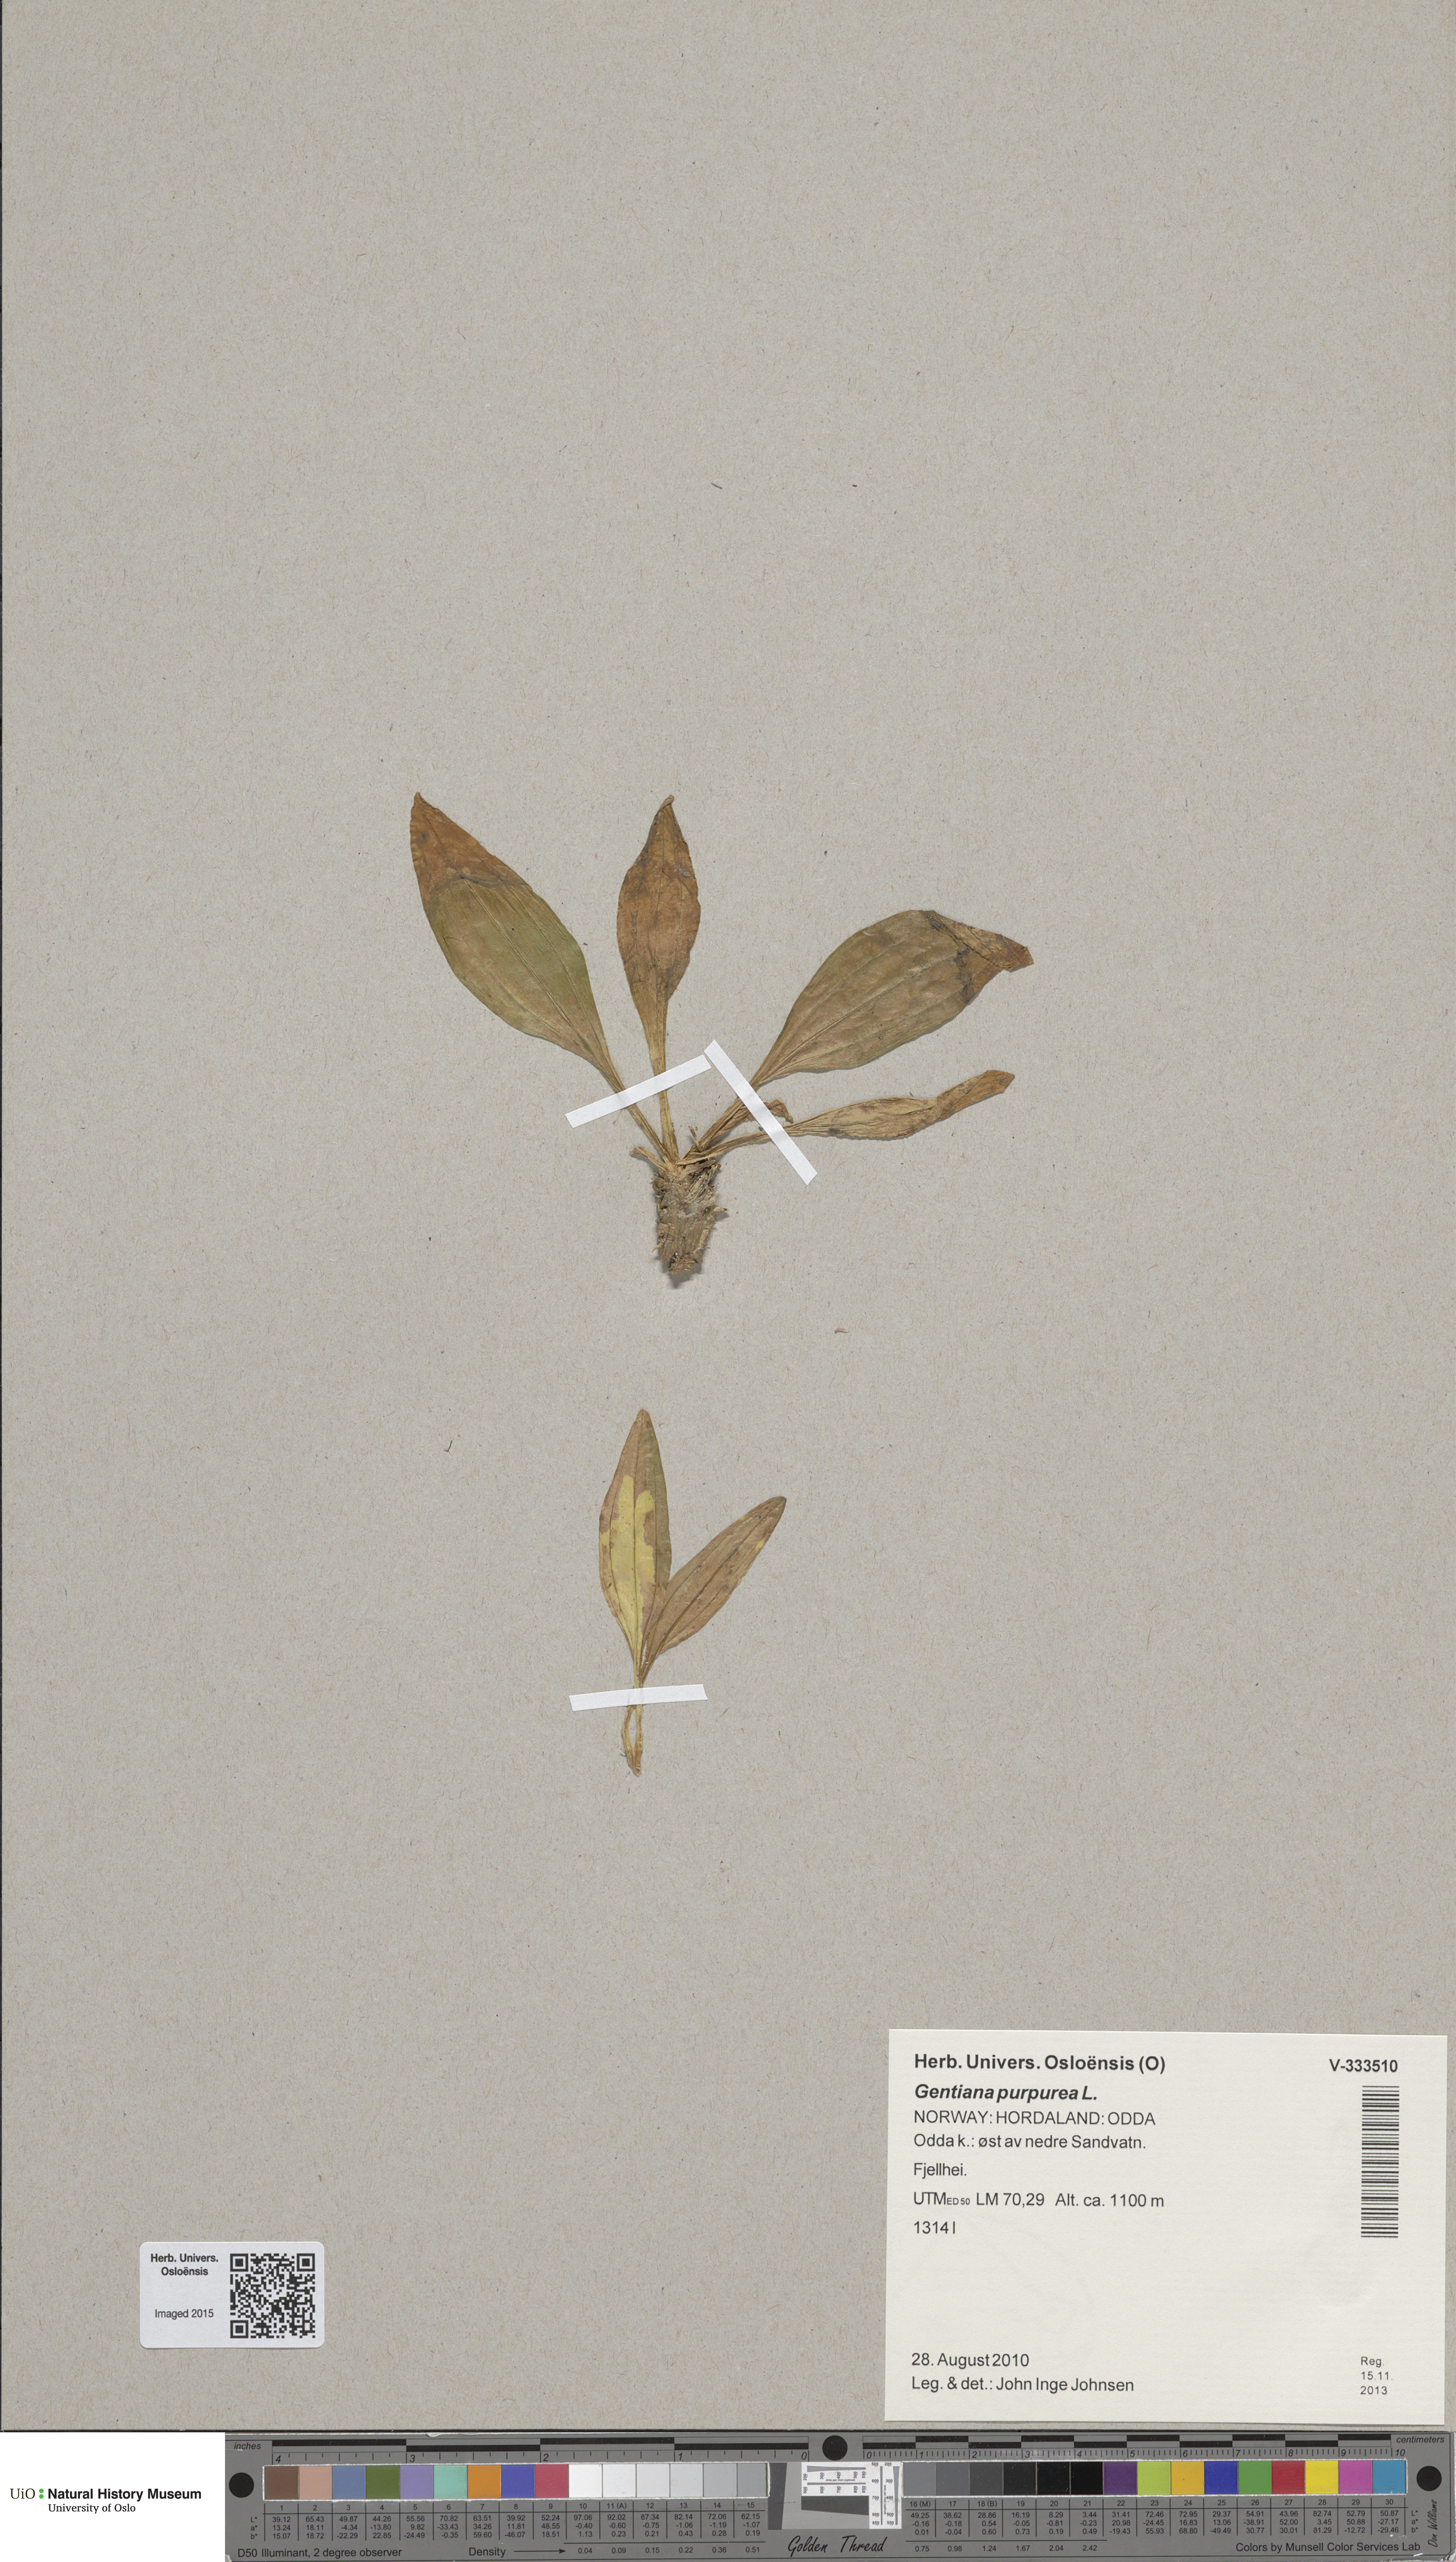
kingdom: Plantae
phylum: Tracheophyta
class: Magnoliopsida
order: Gentianales
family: Gentianaceae
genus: Gentiana
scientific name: Gentiana purpurea
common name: Purple gentian
